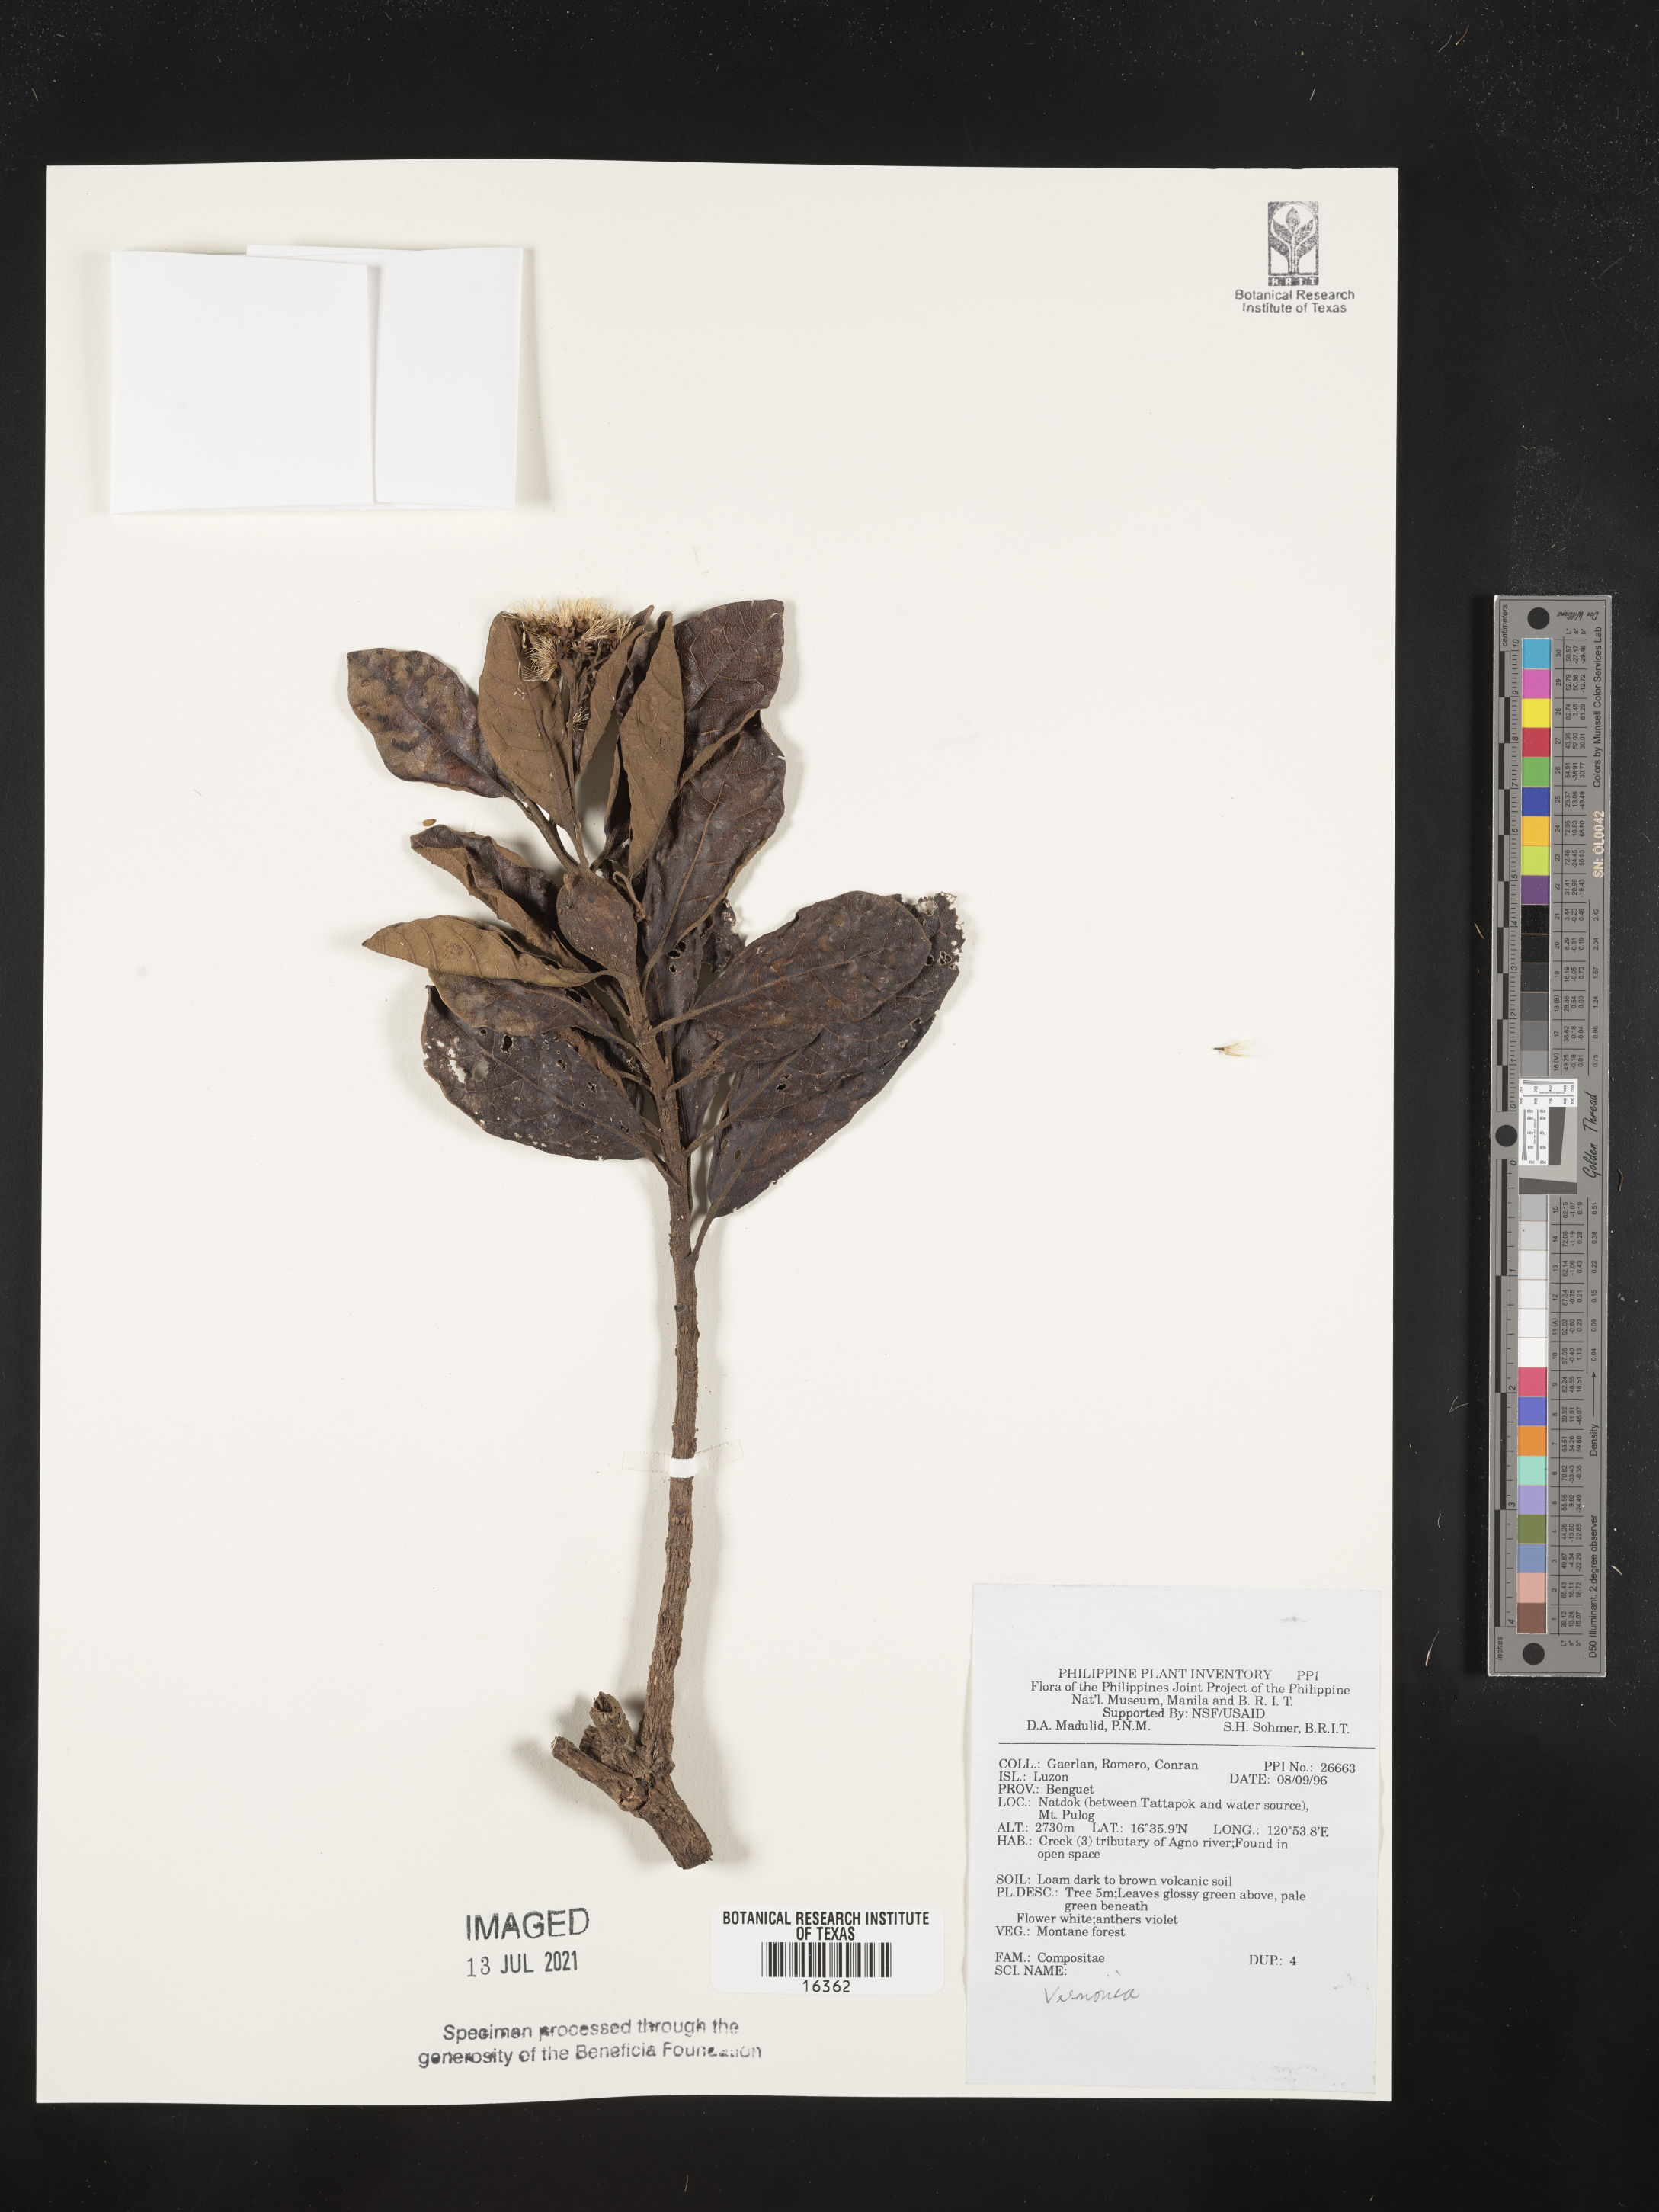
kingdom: Plantae
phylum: Tracheophyta
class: Magnoliopsida
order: Asterales
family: Asteraceae
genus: Vernonia
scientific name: Vernonia
